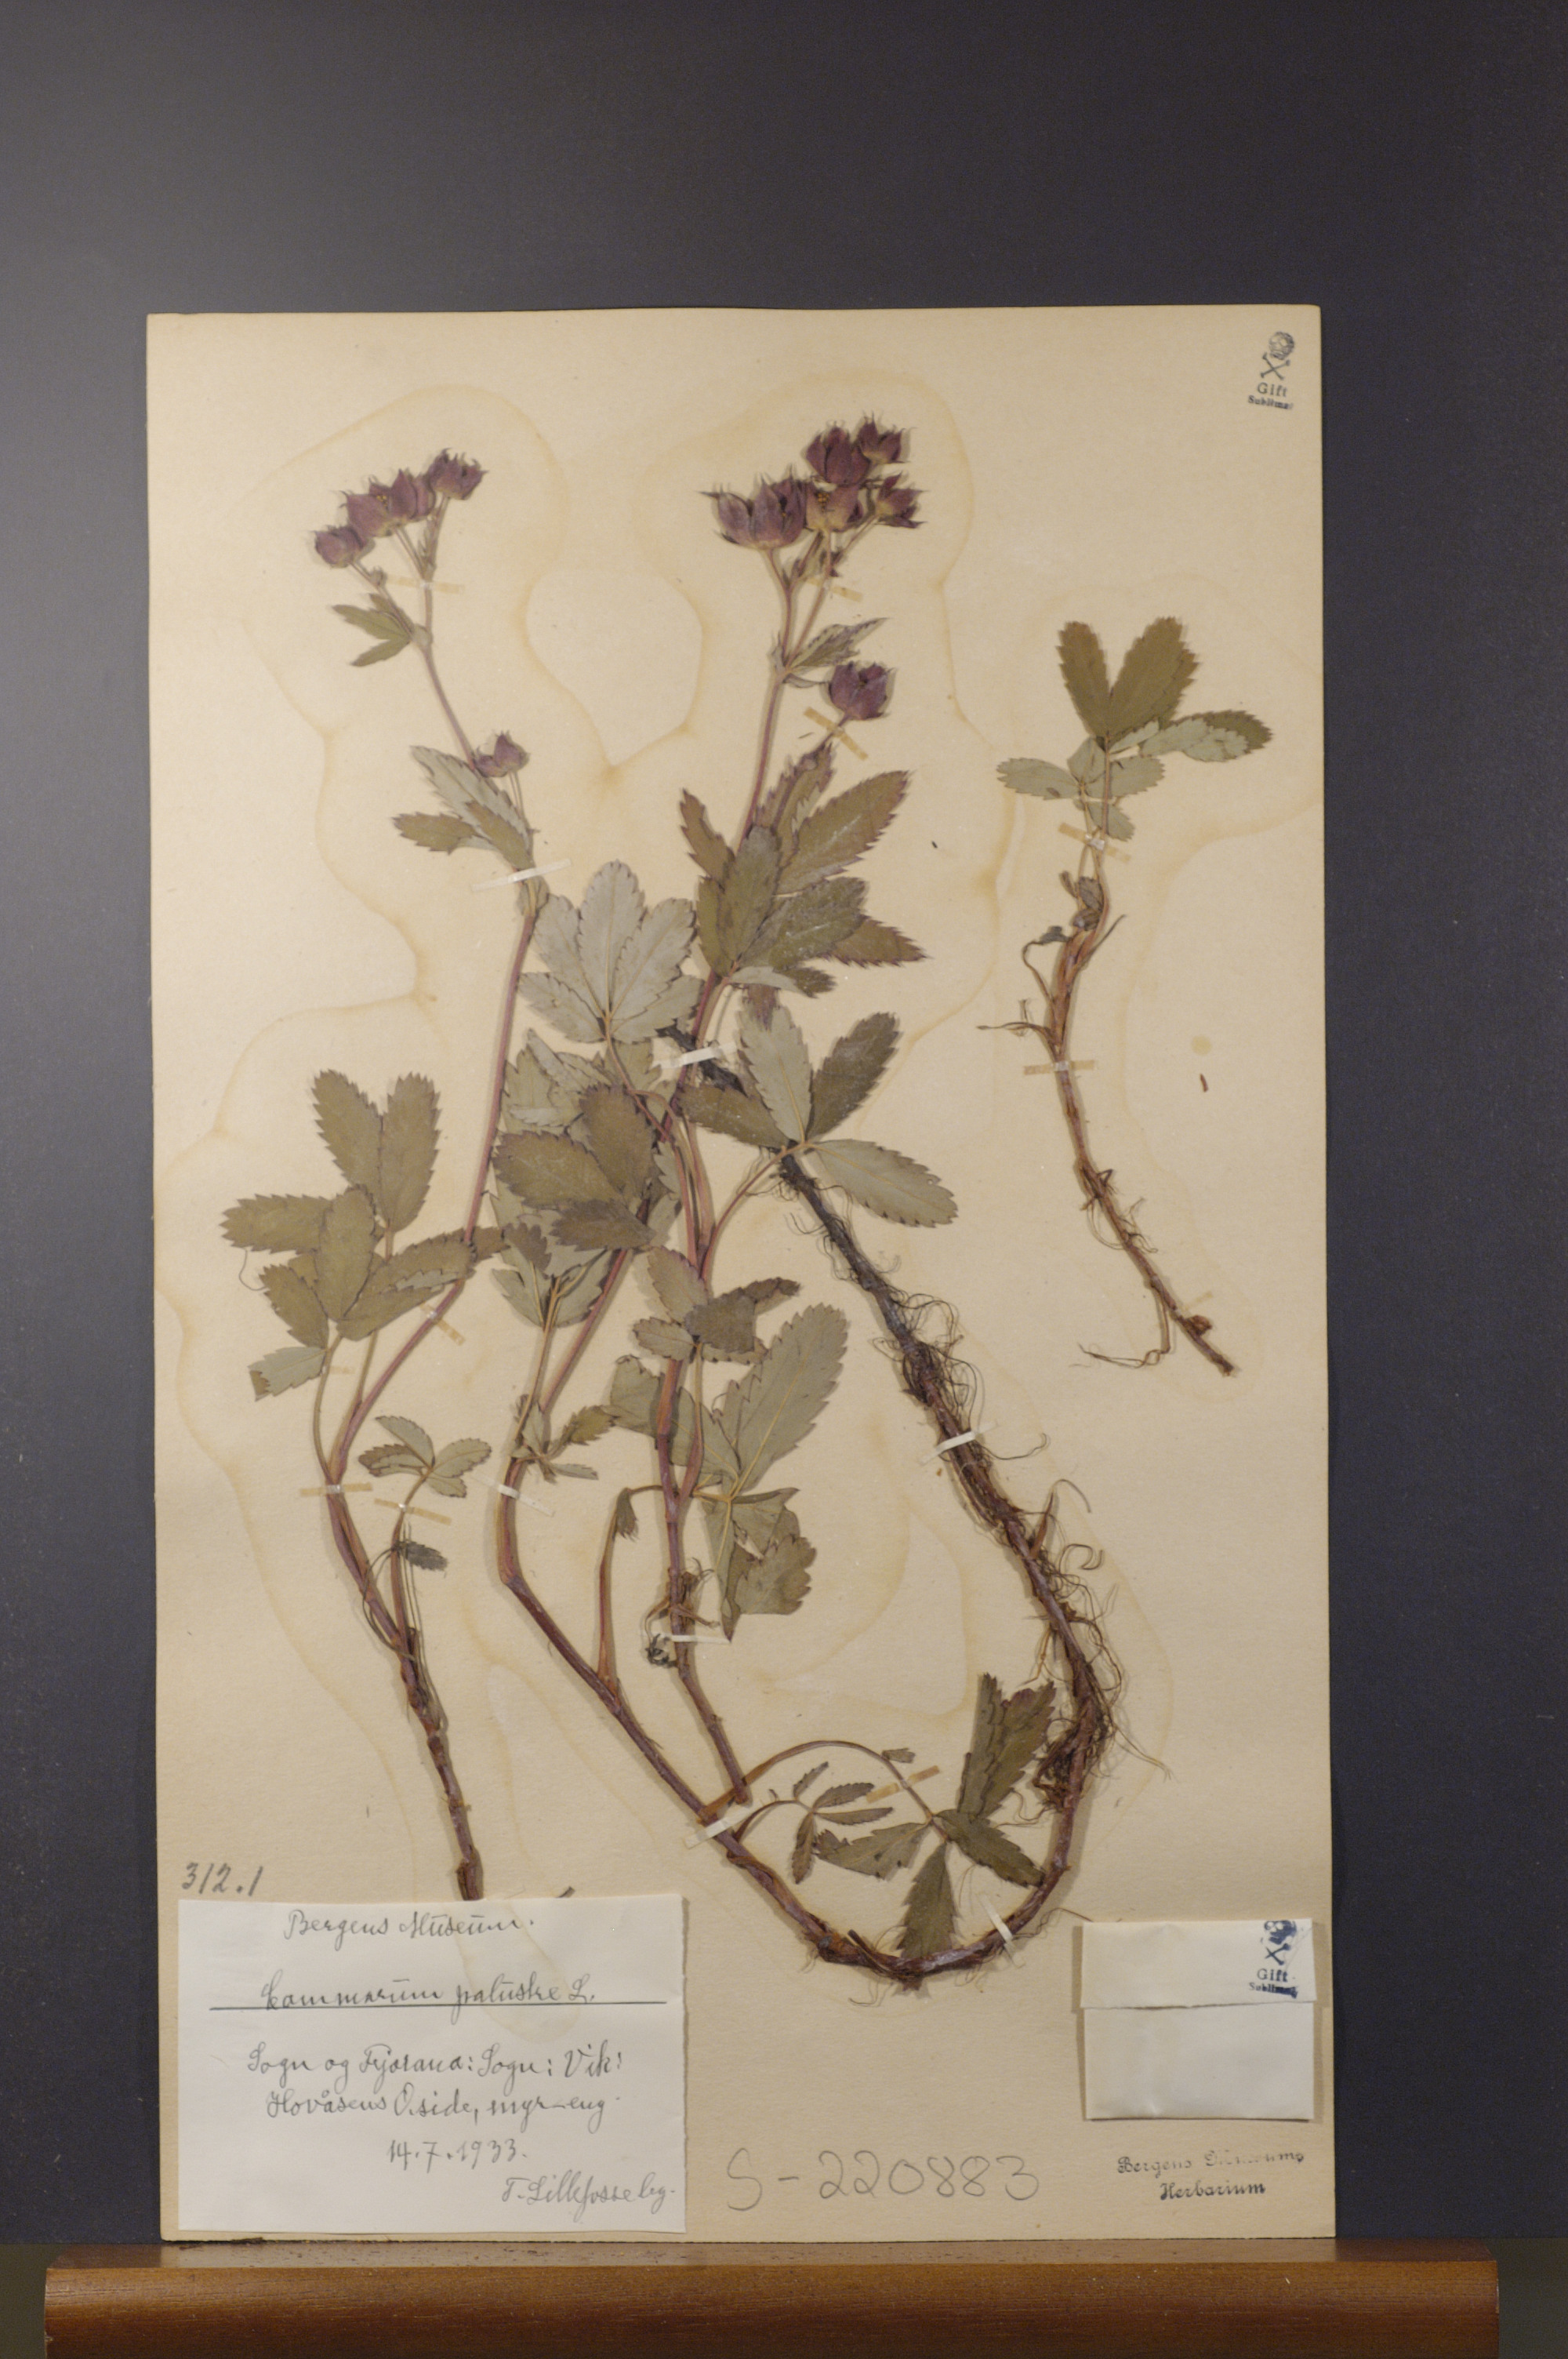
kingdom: Plantae
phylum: Tracheophyta
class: Magnoliopsida
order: Rosales
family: Rosaceae
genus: Comarum
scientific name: Comarum palustre
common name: Marsh cinquefoil
